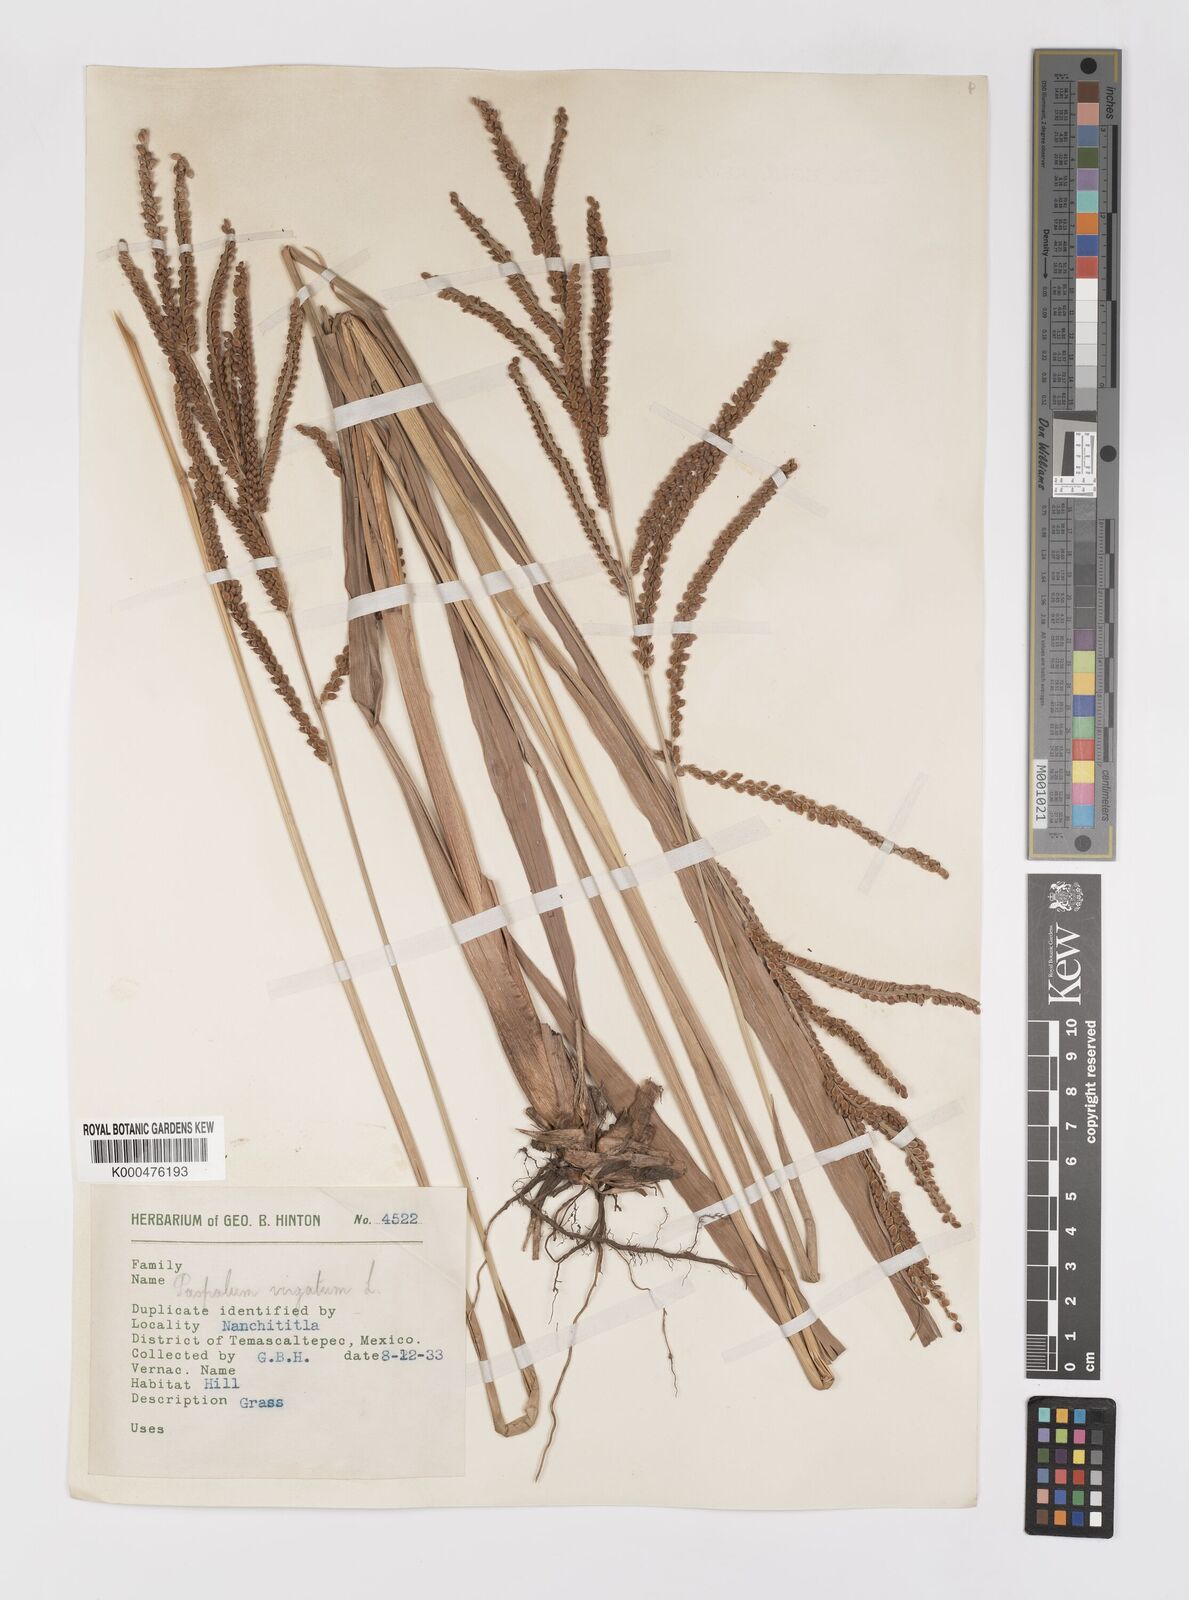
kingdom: Plantae
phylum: Tracheophyta
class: Liliopsida
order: Poales
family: Poaceae
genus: Paspalum
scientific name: Paspalum virgatum
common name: Talquezal
